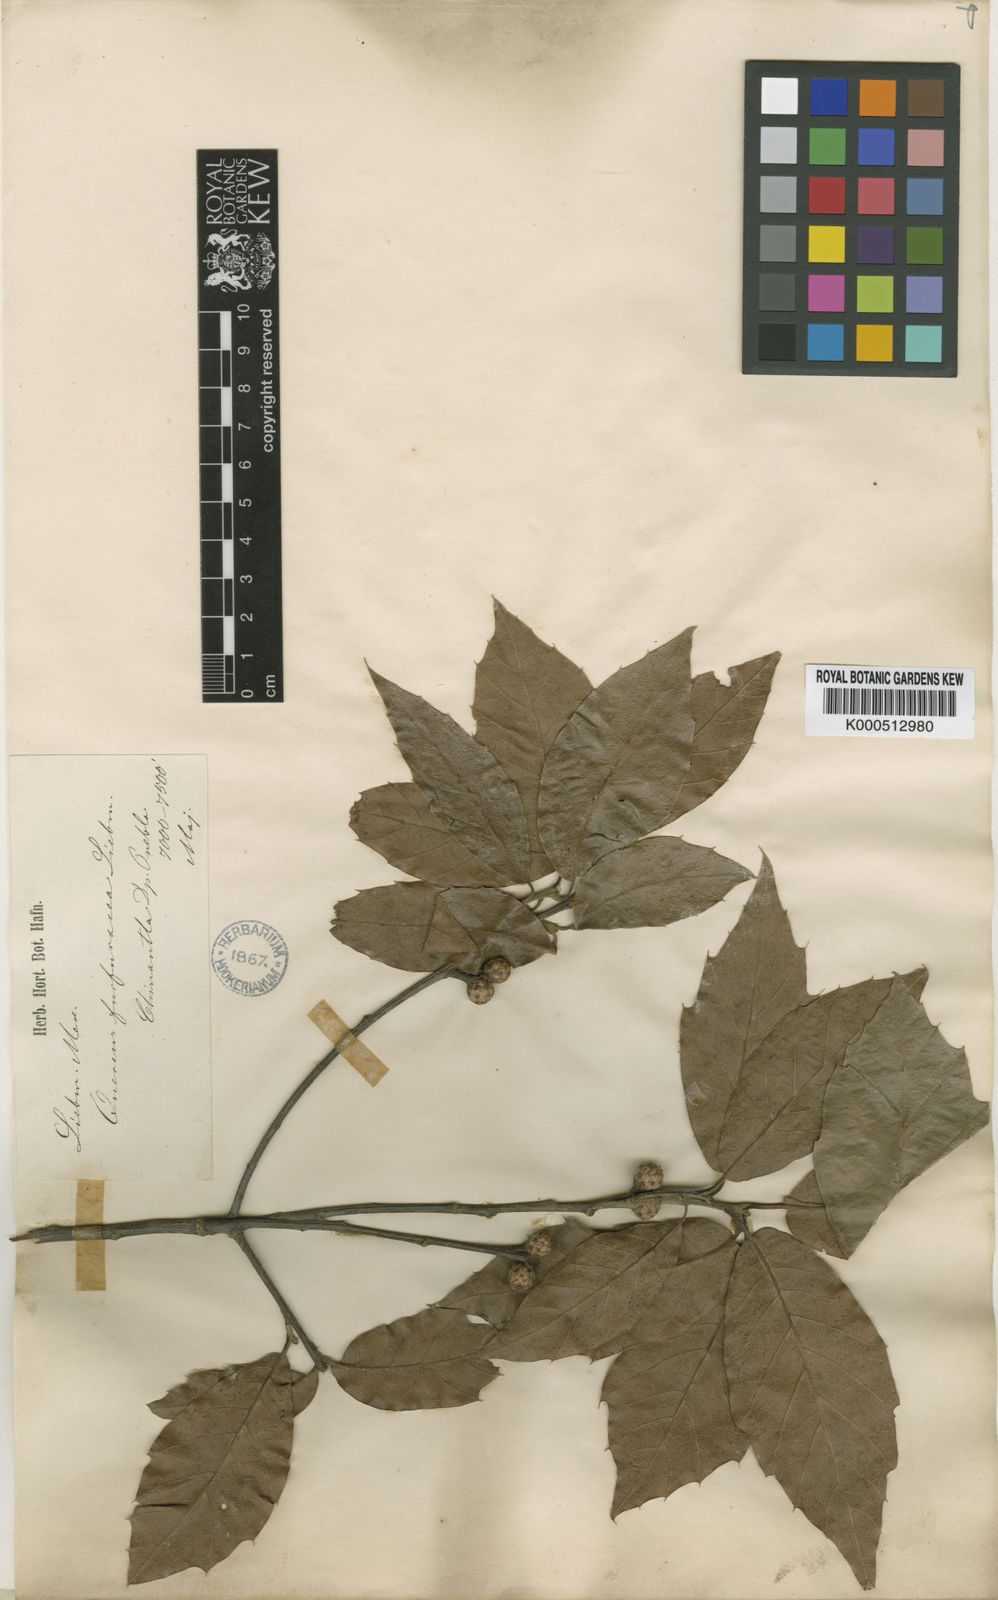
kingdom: Plantae
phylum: Tracheophyta
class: Magnoliopsida
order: Fagales
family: Fagaceae
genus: Quercus
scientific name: Quercus furfuracea
